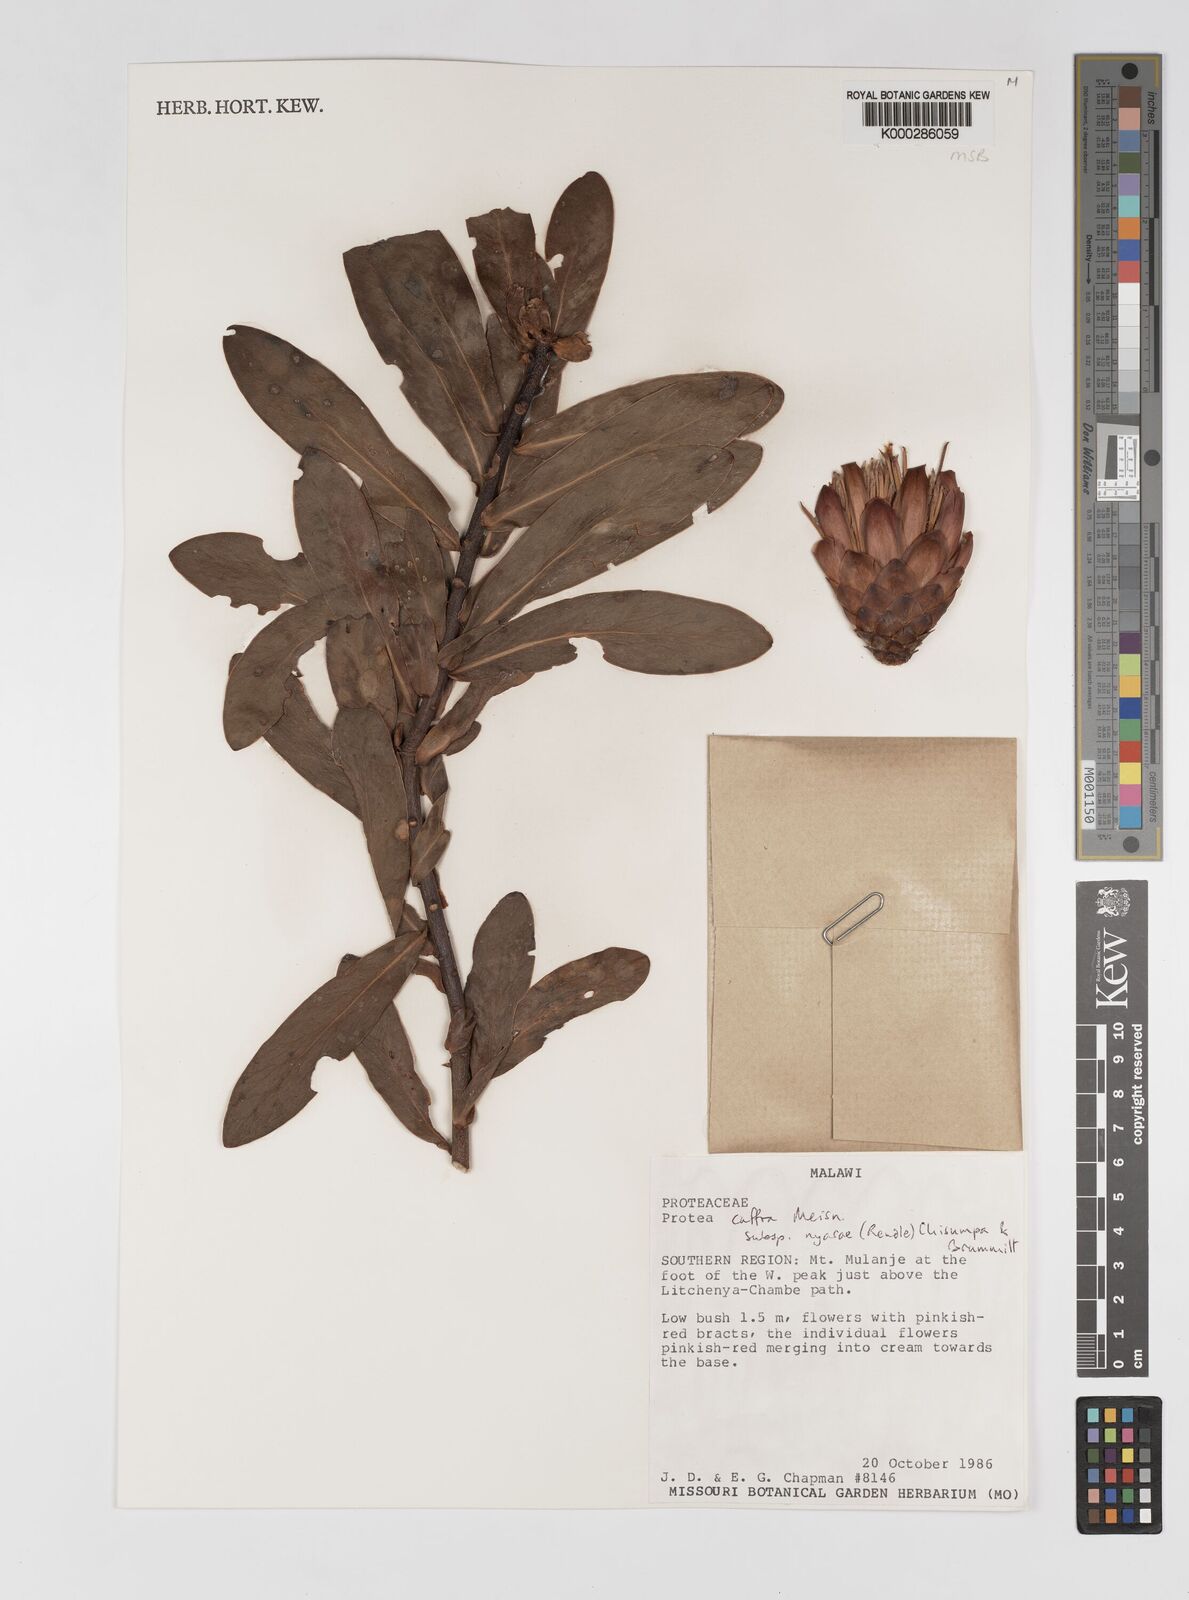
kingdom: Plantae
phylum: Tracheophyta
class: Magnoliopsida
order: Proteales
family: Proteaceae
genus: Protea
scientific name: Protea caffra
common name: Common sugarbush
